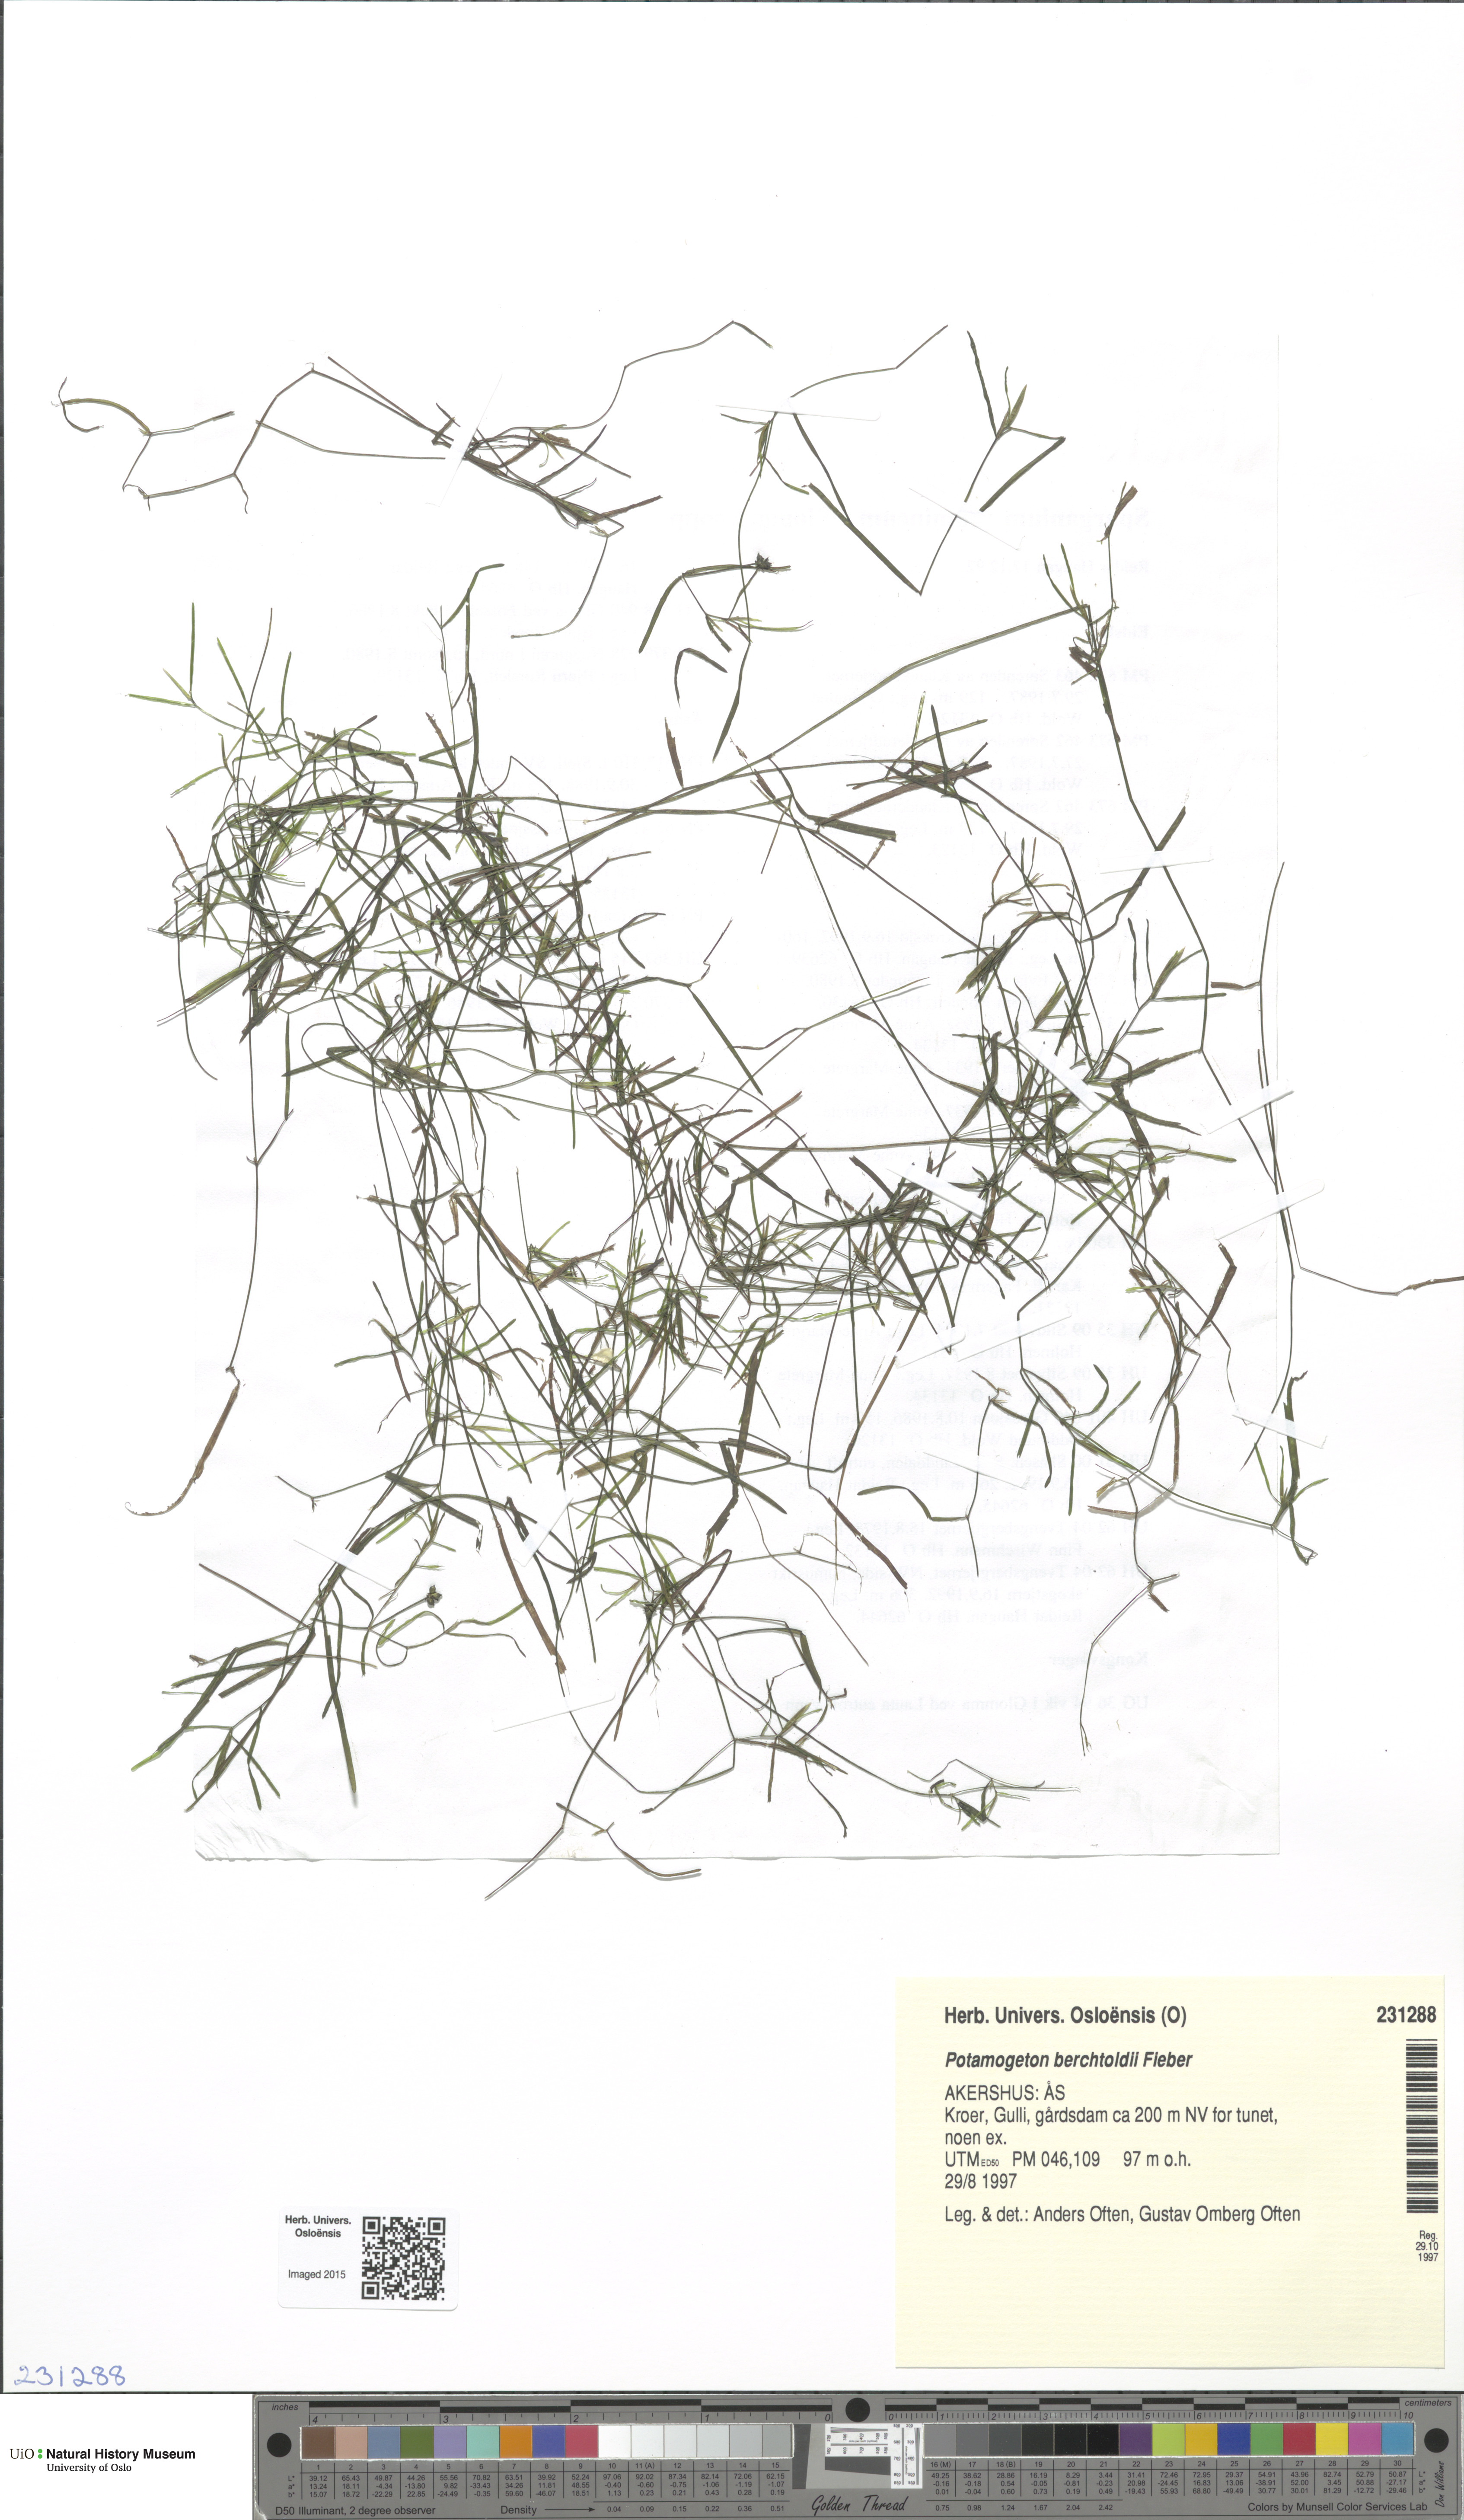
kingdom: Plantae
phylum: Tracheophyta
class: Liliopsida
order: Alismatales
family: Potamogetonaceae
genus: Potamogeton
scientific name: Potamogeton berchtoldii
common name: Small pondweed
